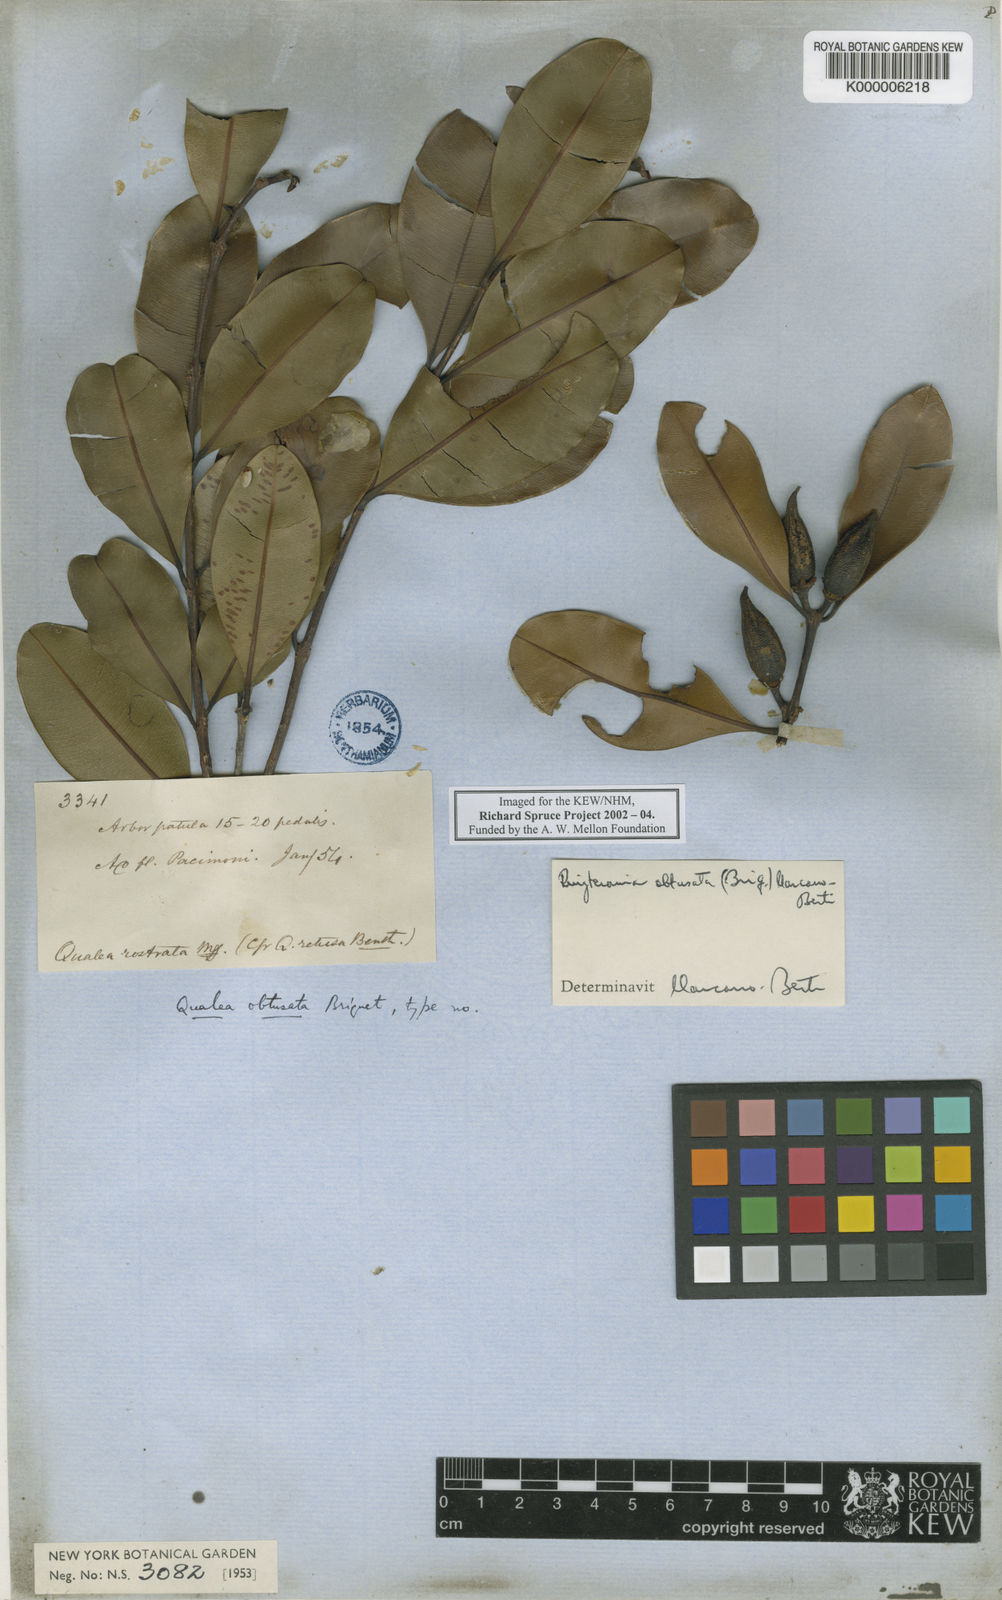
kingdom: Plantae
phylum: Tracheophyta
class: Magnoliopsida
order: Myrtales
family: Vochysiaceae
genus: Ruizterania
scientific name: Ruizterania obtusata
